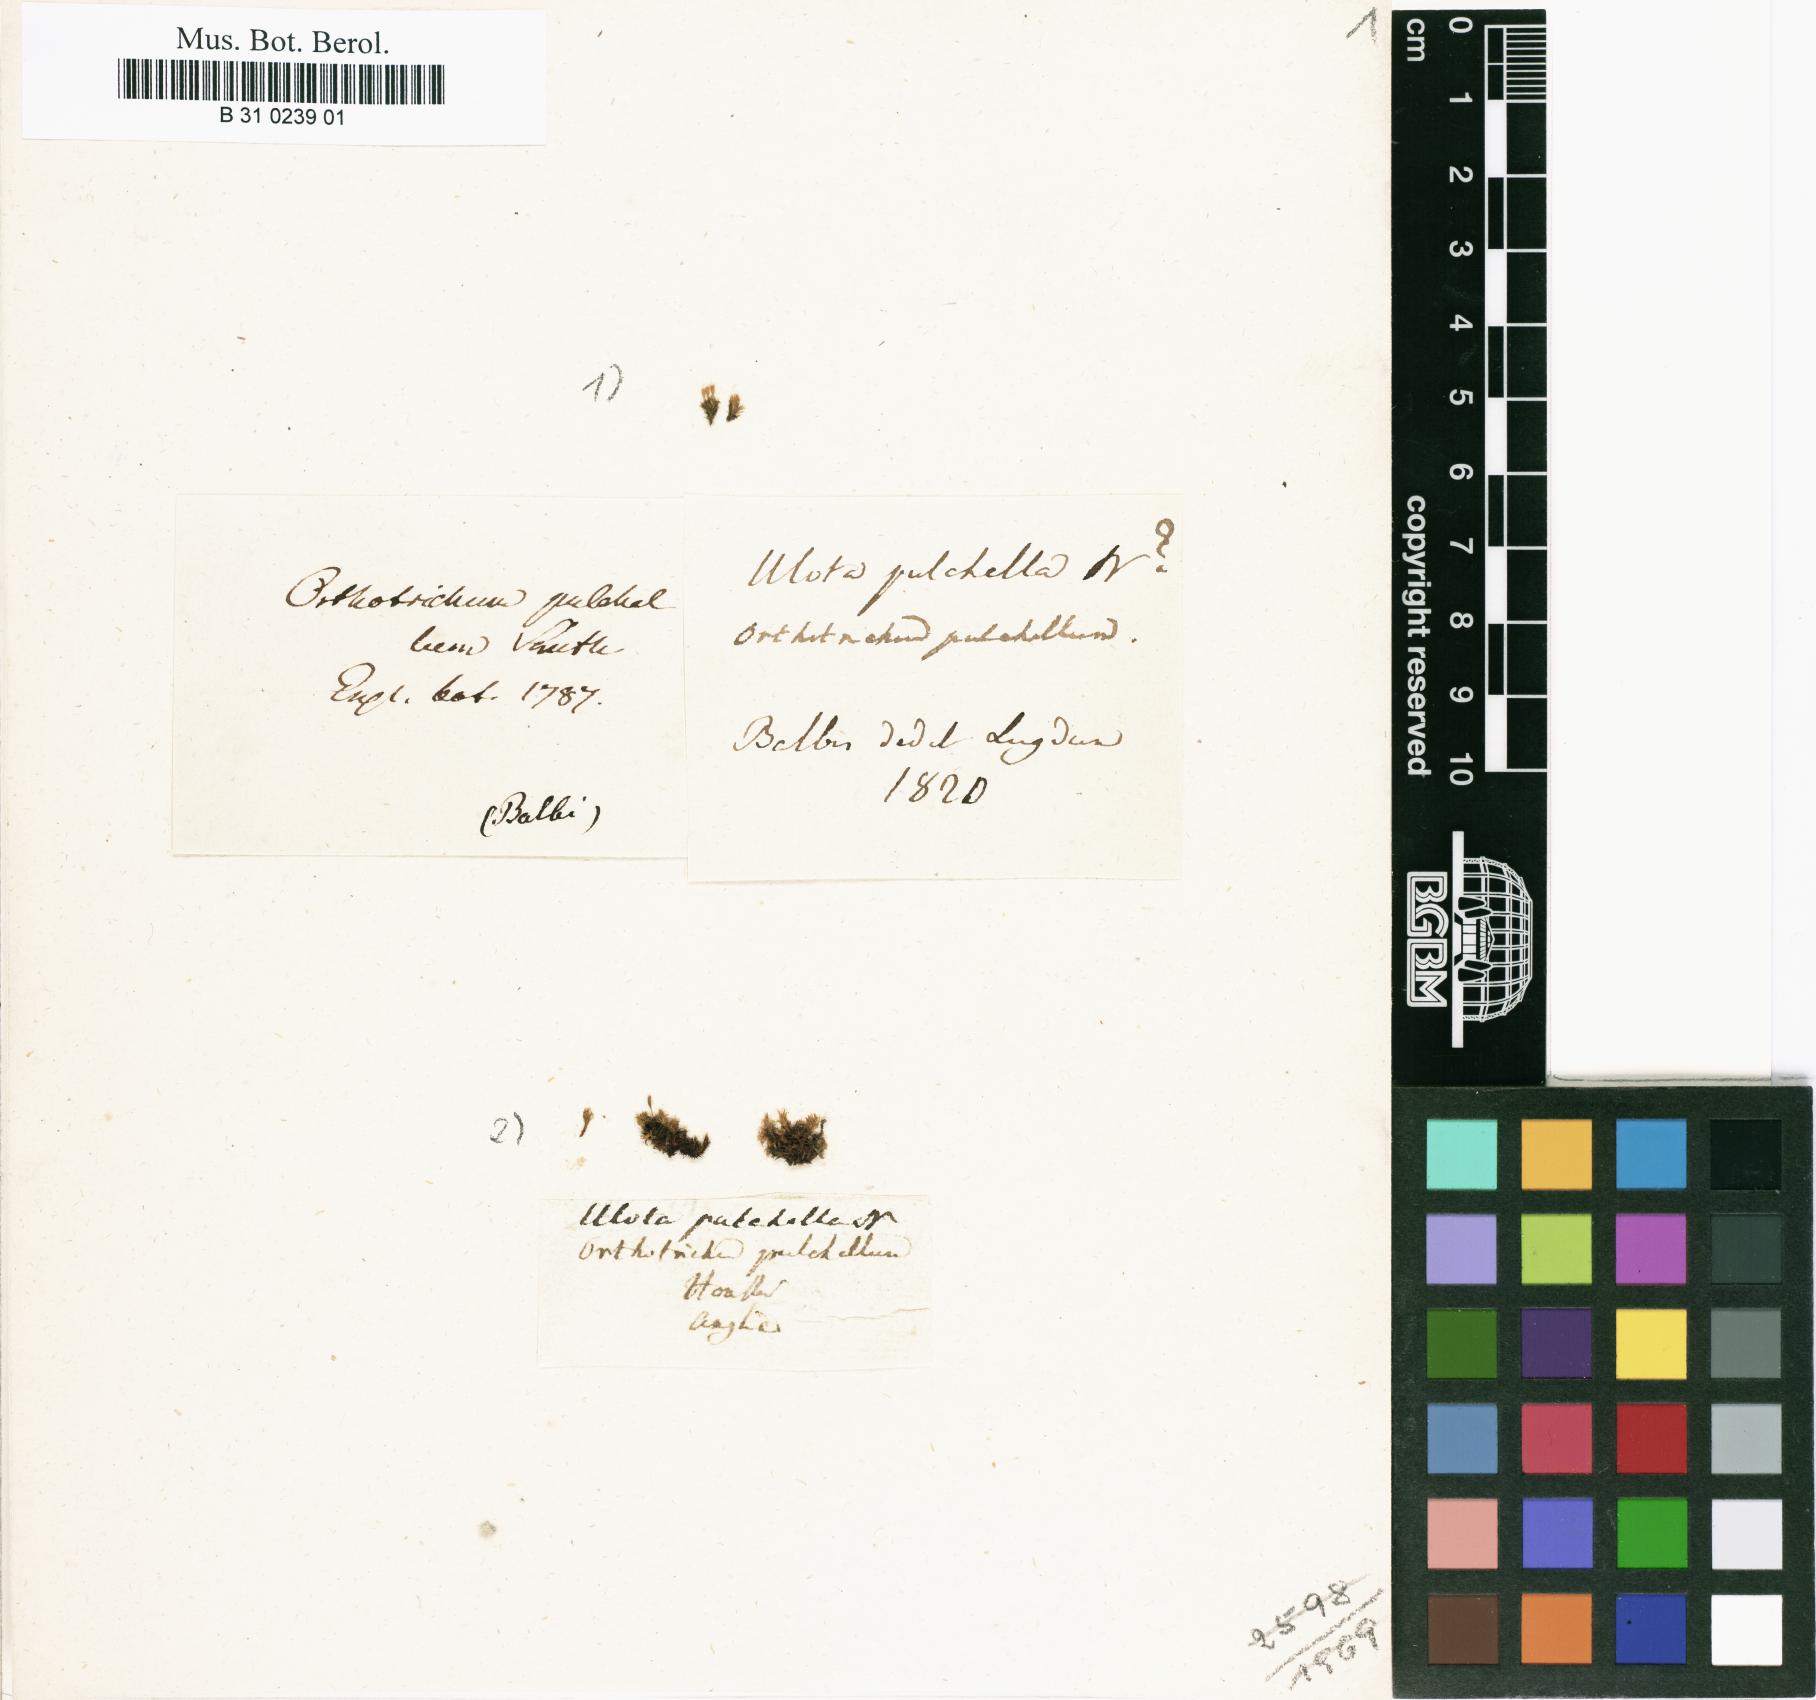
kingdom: Plantae
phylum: Bryophyta
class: Bryopsida
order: Orthotrichales
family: Orthotrichaceae
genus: Orthotrichum
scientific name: Orthotrichum pulchellum
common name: Elegant bristle-moss
